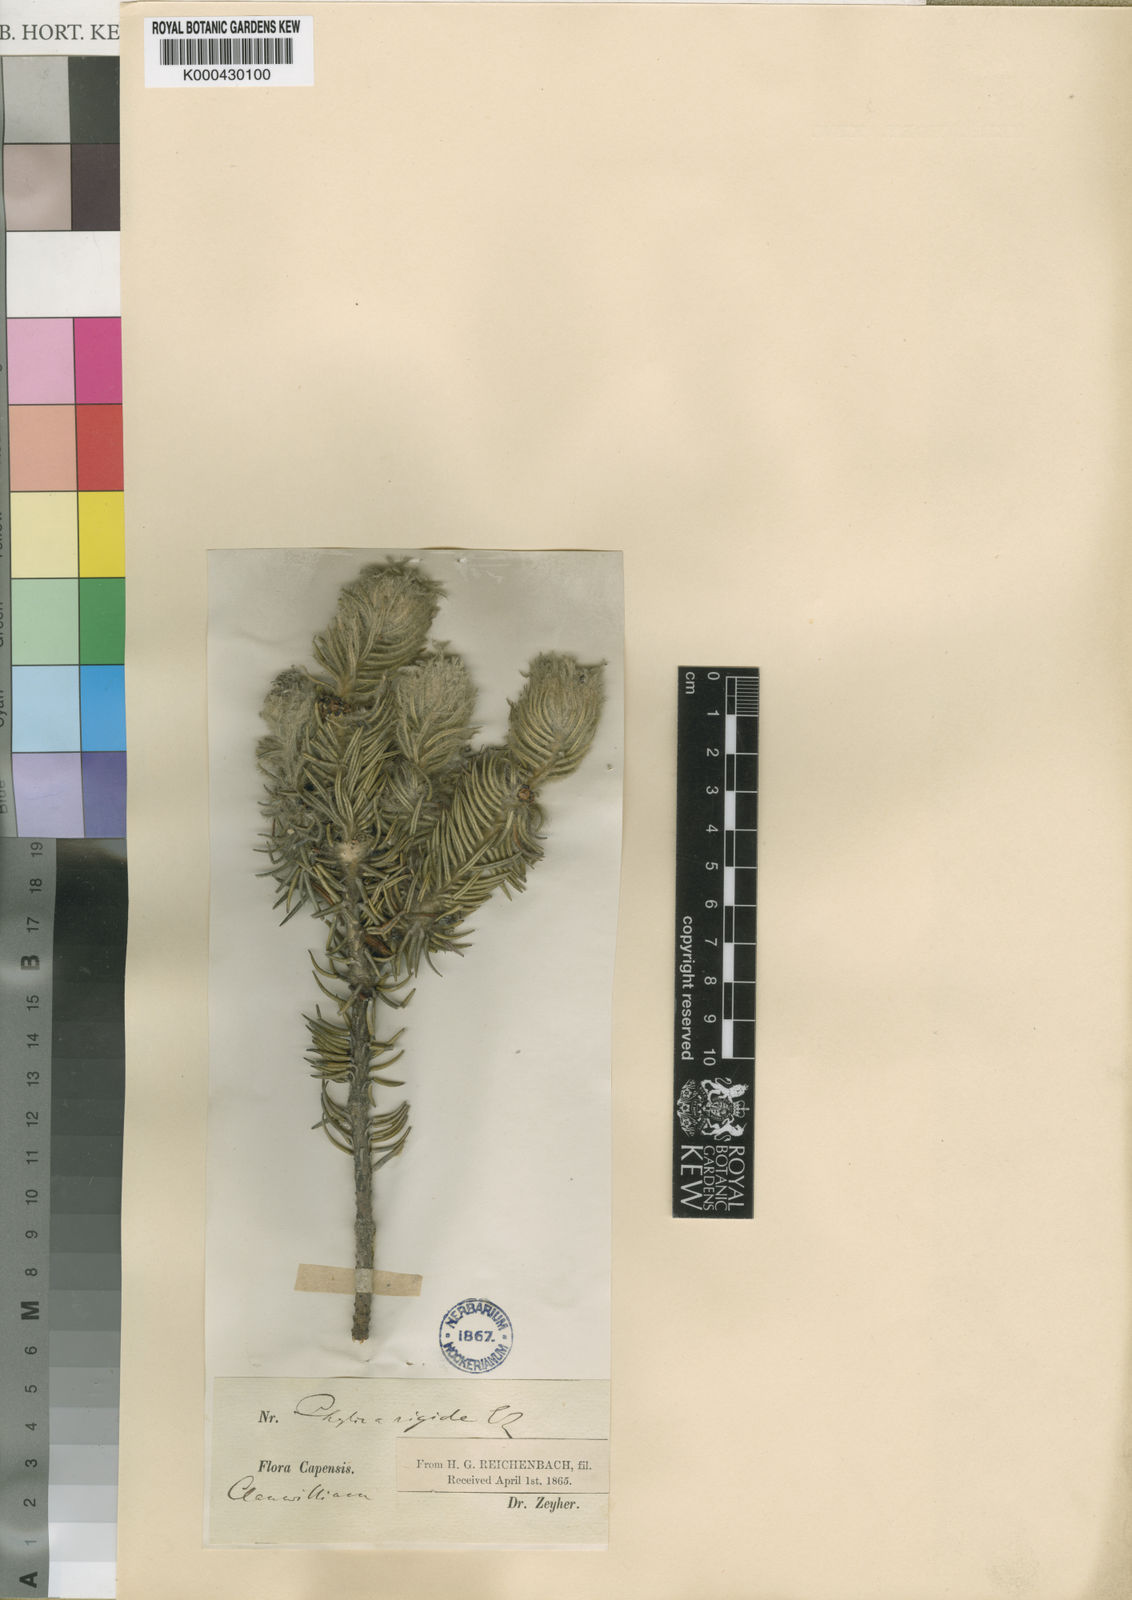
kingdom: Plantae
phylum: Tracheophyta
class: Magnoliopsida
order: Rosales
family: Rhamnaceae
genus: Phylica
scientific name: Phylica rigida
